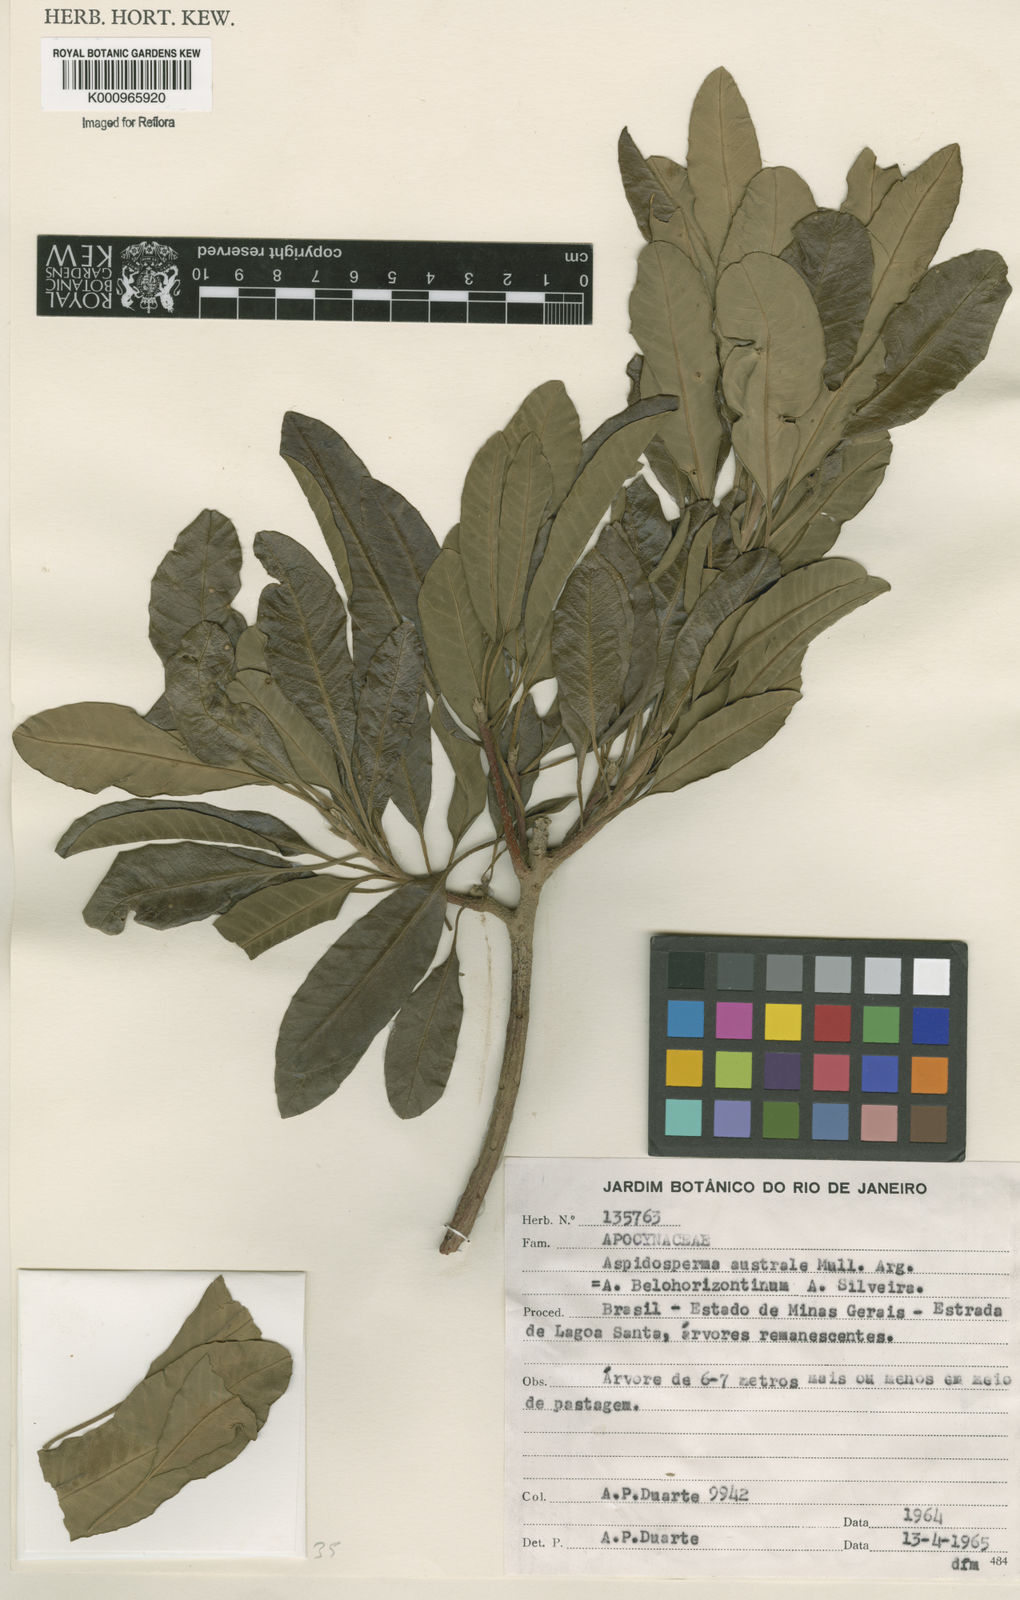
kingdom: Plantae
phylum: Tracheophyta
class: Magnoliopsida
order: Gentianales
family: Apocynaceae
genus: Aspidosperma
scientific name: Aspidosperma
